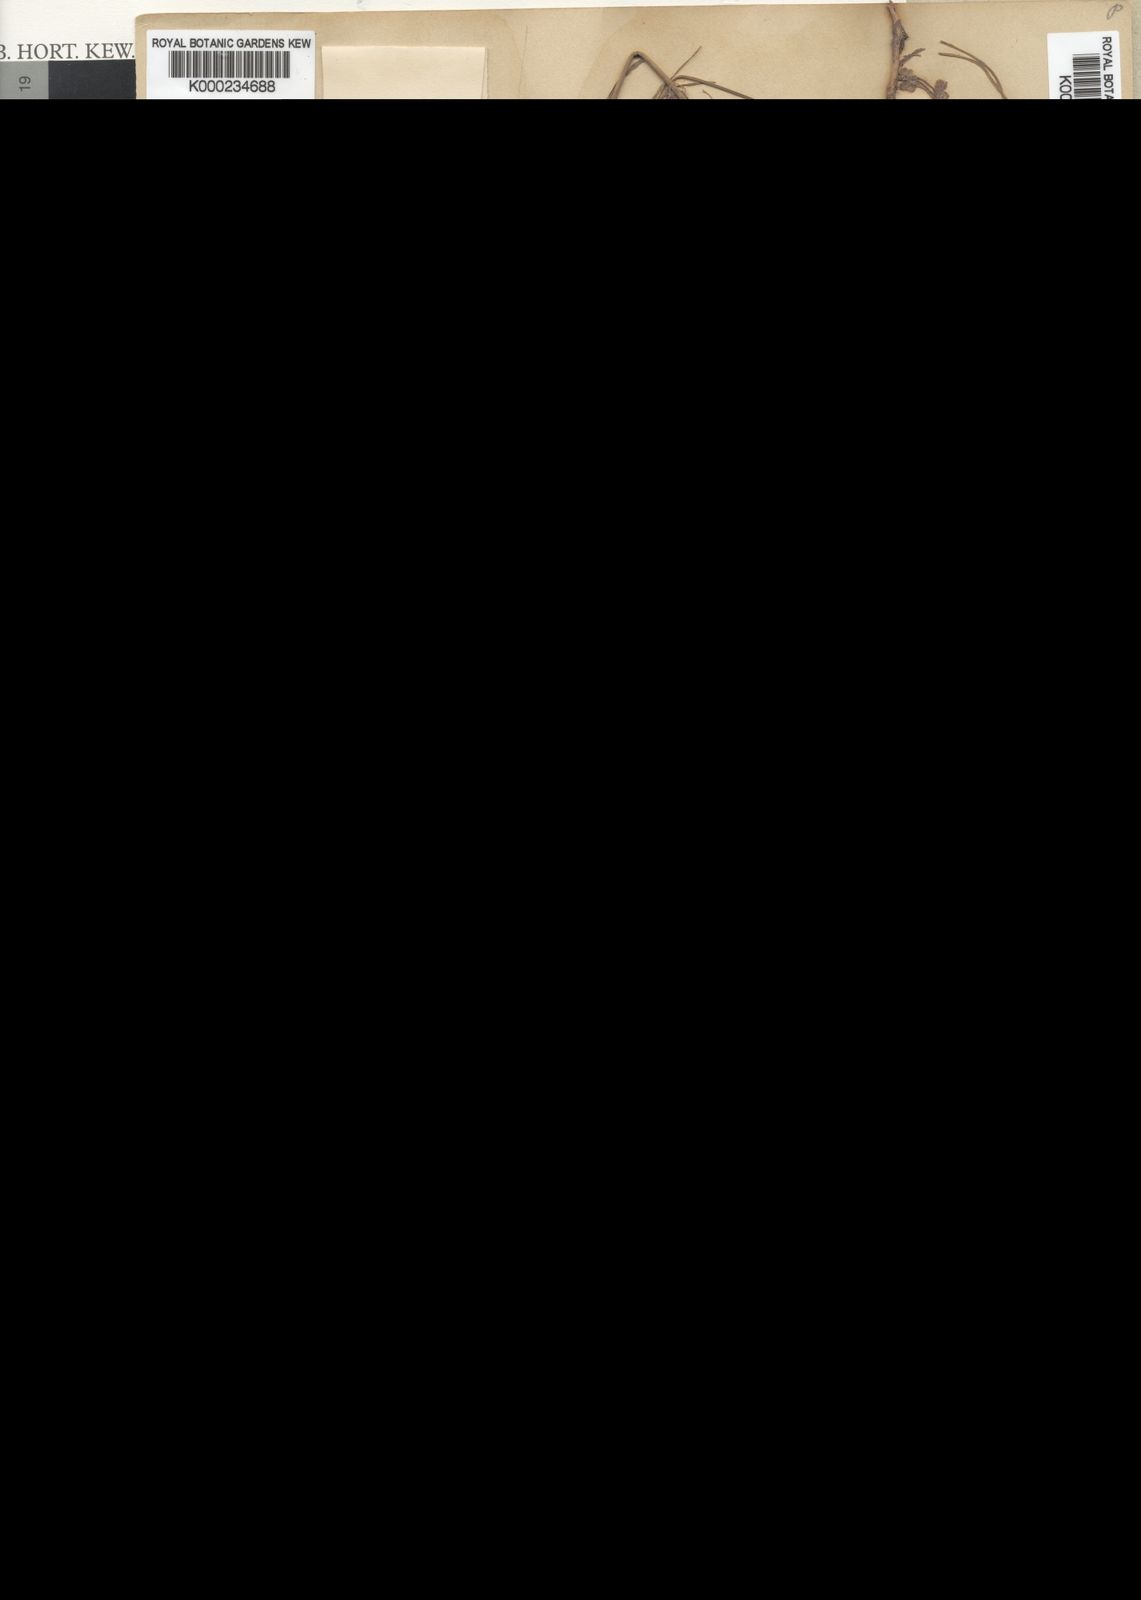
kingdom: Plantae
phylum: Tracheophyta
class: Magnoliopsida
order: Gentianales
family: Apocynaceae
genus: Aspidoglossum
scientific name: Aspidoglossum woodii
